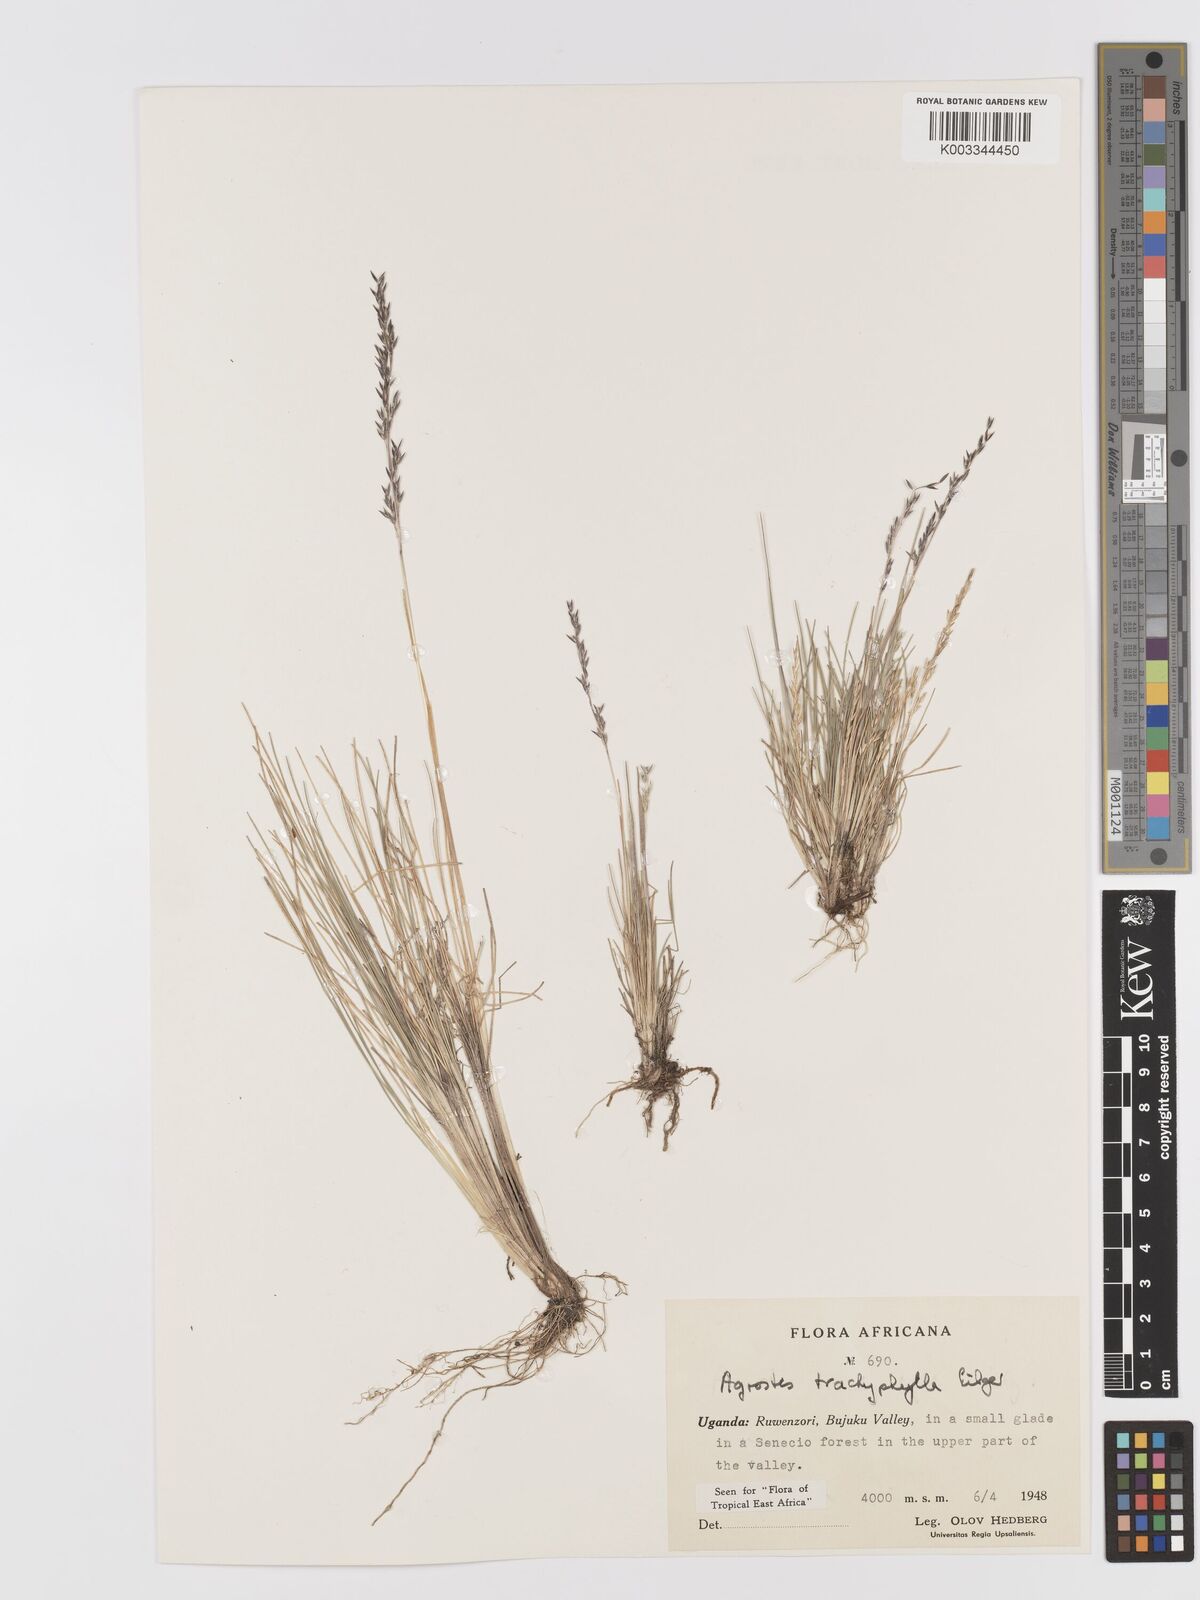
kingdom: Plantae
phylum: Tracheophyta
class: Liliopsida
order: Poales
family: Poaceae
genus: Agrostis
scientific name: Agrostis trachyphylla
